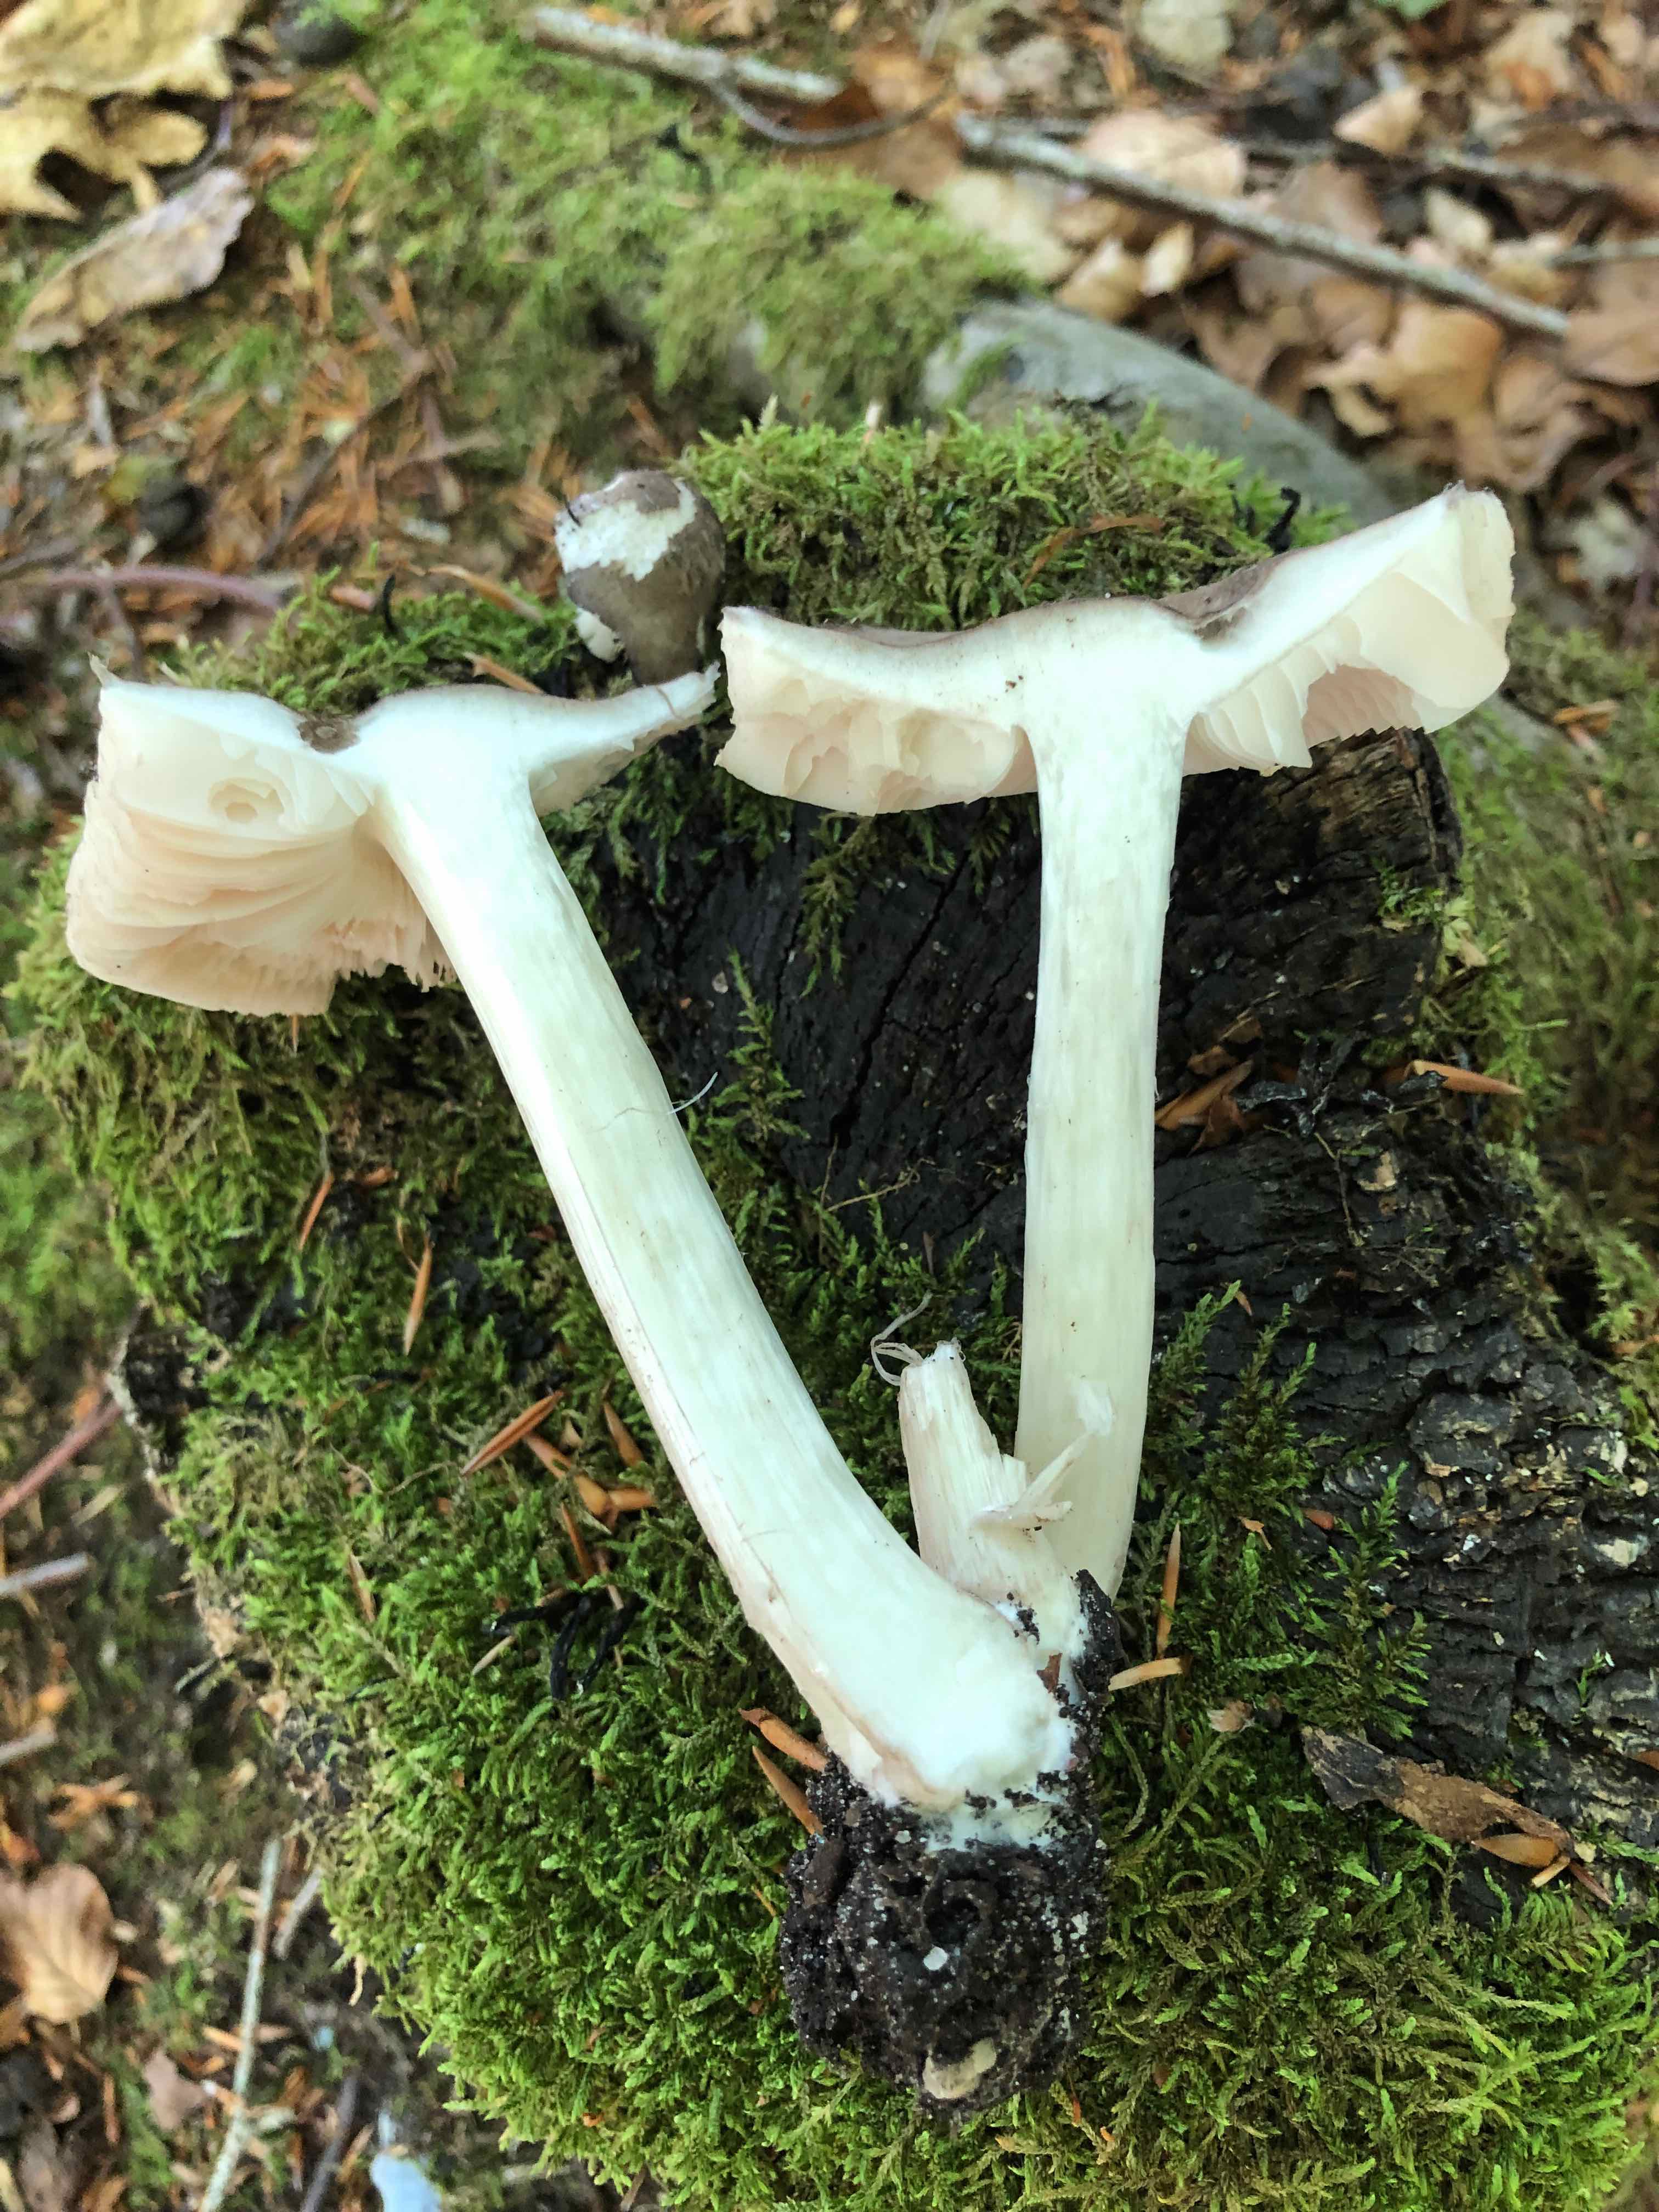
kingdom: Fungi
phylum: Basidiomycota
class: Agaricomycetes
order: Agaricales
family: Pluteaceae
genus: Pluteus
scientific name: Pluteus cervinus
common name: sodfarvet skærmhat
